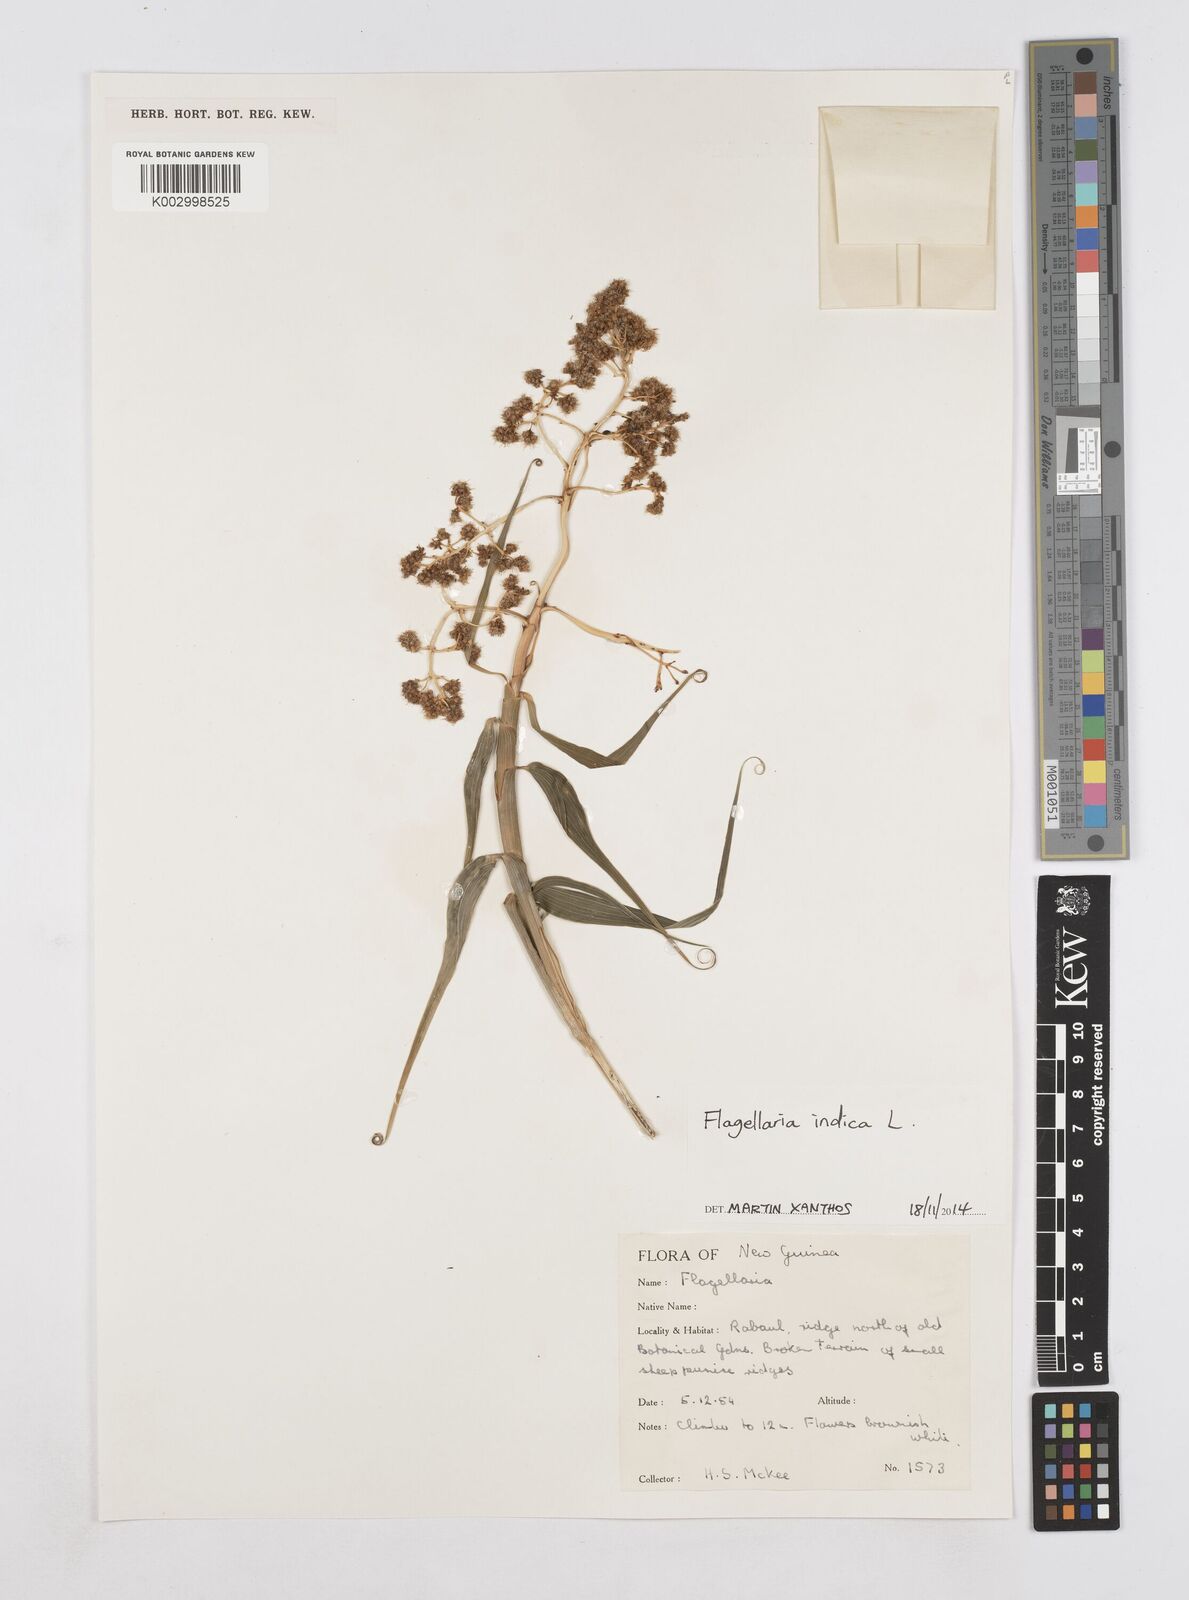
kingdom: Plantae
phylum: Tracheophyta
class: Liliopsida
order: Poales
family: Flagellariaceae
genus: Flagellaria
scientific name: Flagellaria indica
